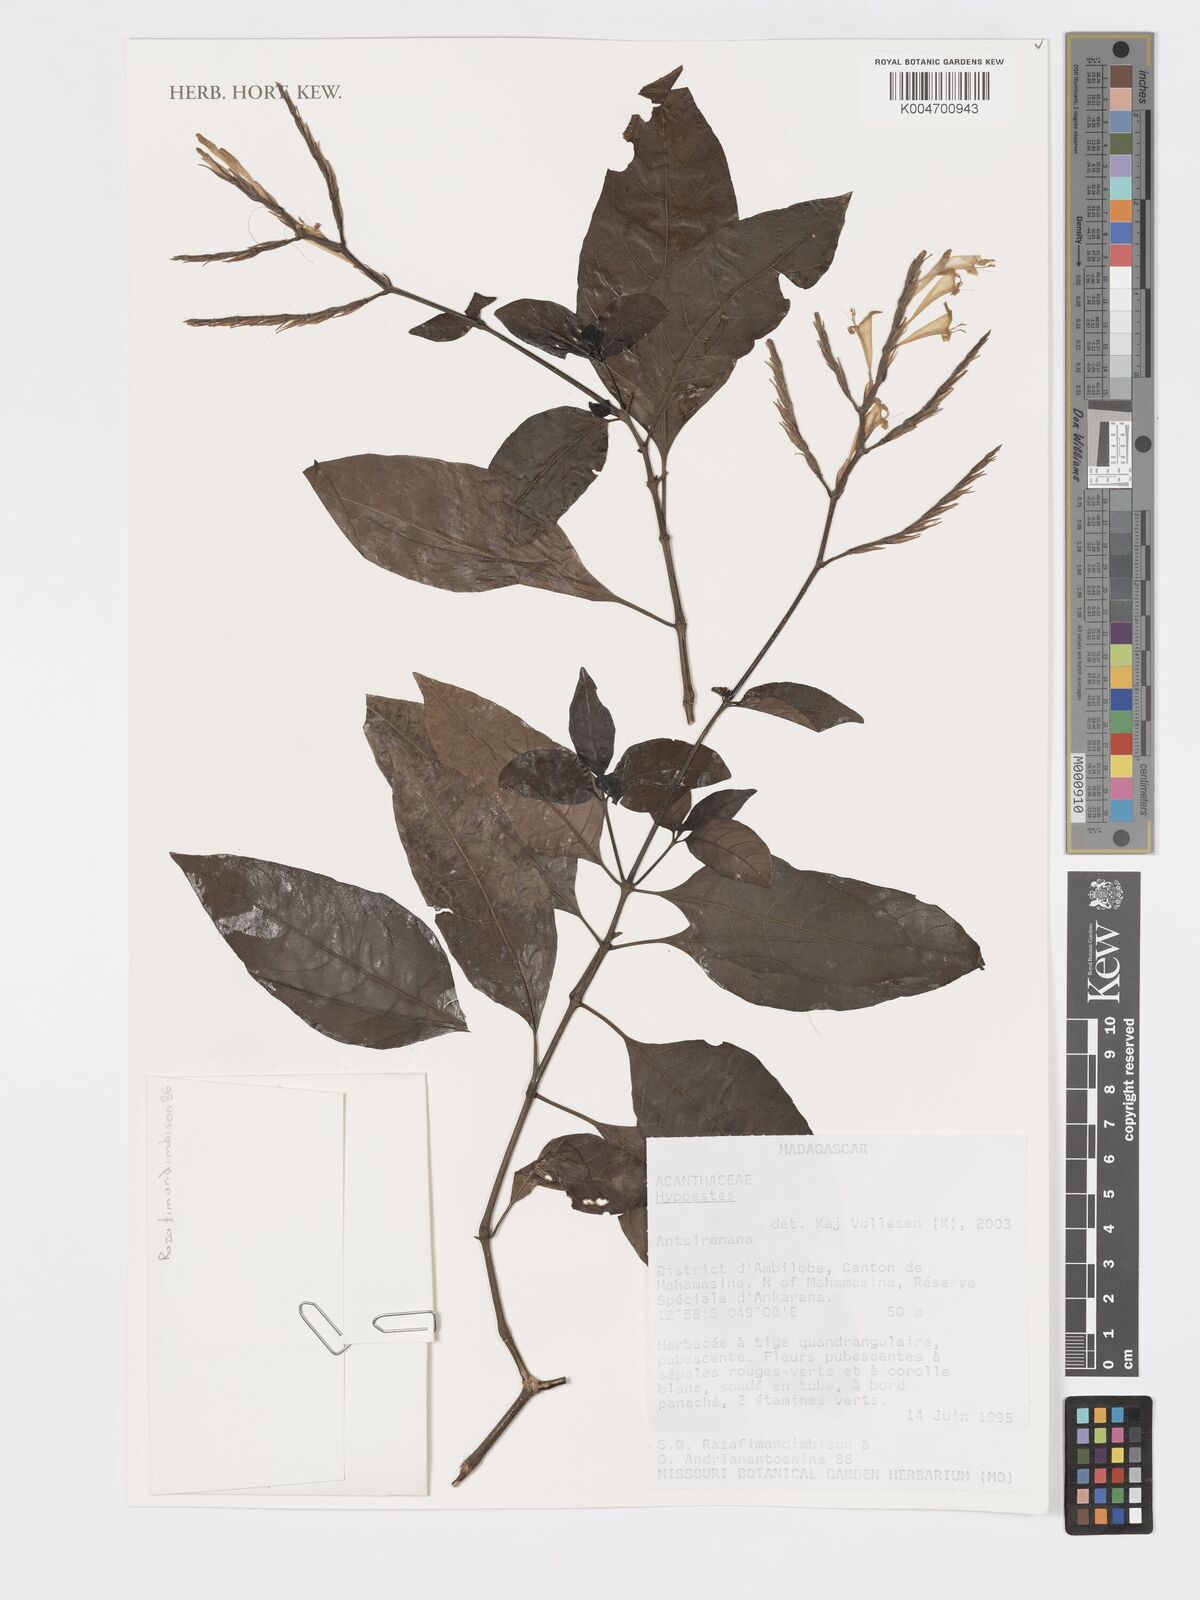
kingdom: Plantae
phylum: Tracheophyta
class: Magnoliopsida
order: Lamiales
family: Acanthaceae
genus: Hypoestes
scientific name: Hypoestes
